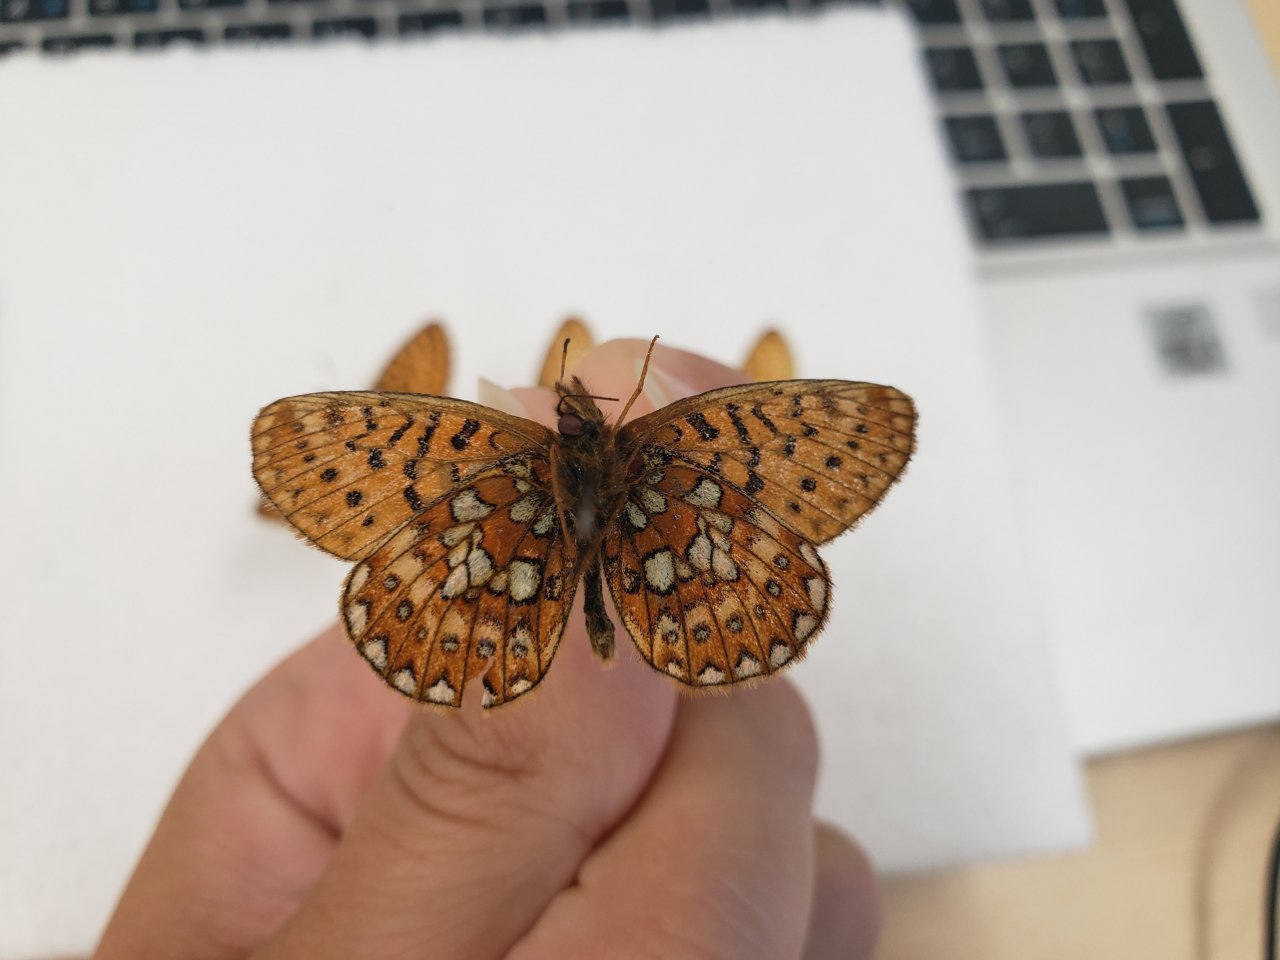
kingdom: Animalia
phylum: Arthropoda
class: Insecta
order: Lepidoptera
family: Nymphalidae
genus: Boloria
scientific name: Boloria eunomia
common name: Bog Fritillary
